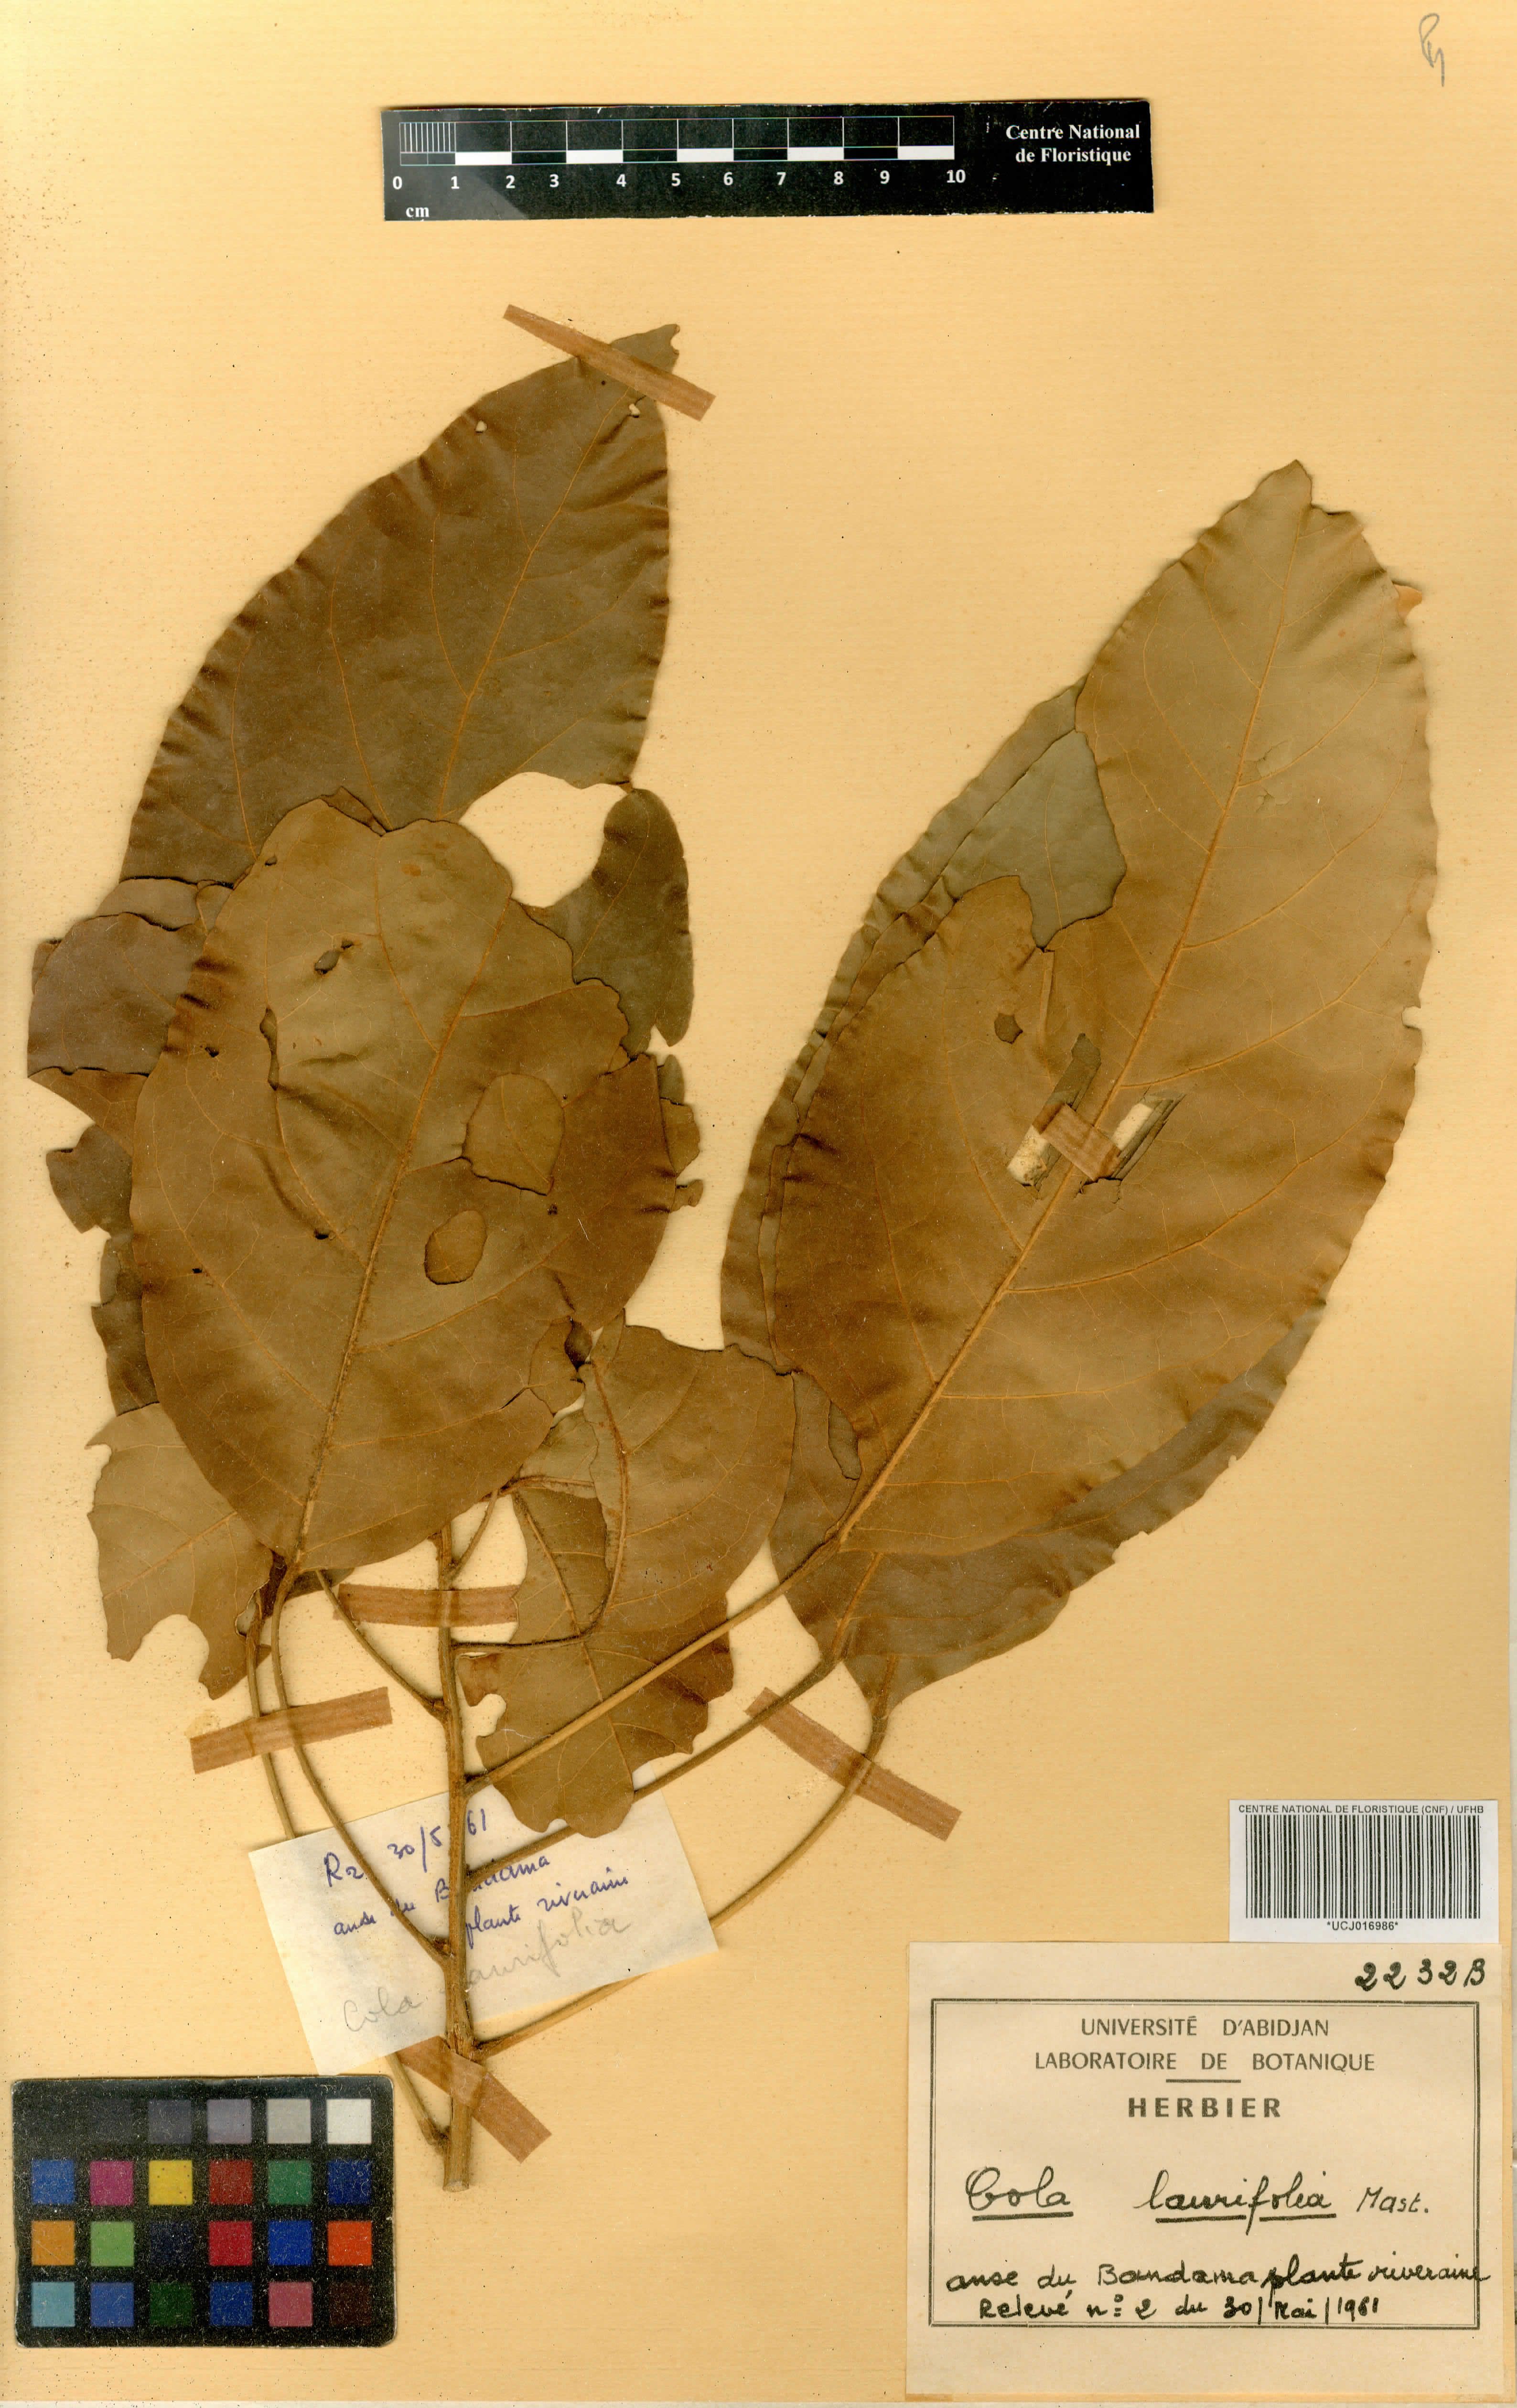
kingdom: Plantae
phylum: Tracheophyta
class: Magnoliopsida
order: Malvales
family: Malvaceae
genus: Cola
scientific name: Cola laurifolia
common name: Laurel-leaved kola
